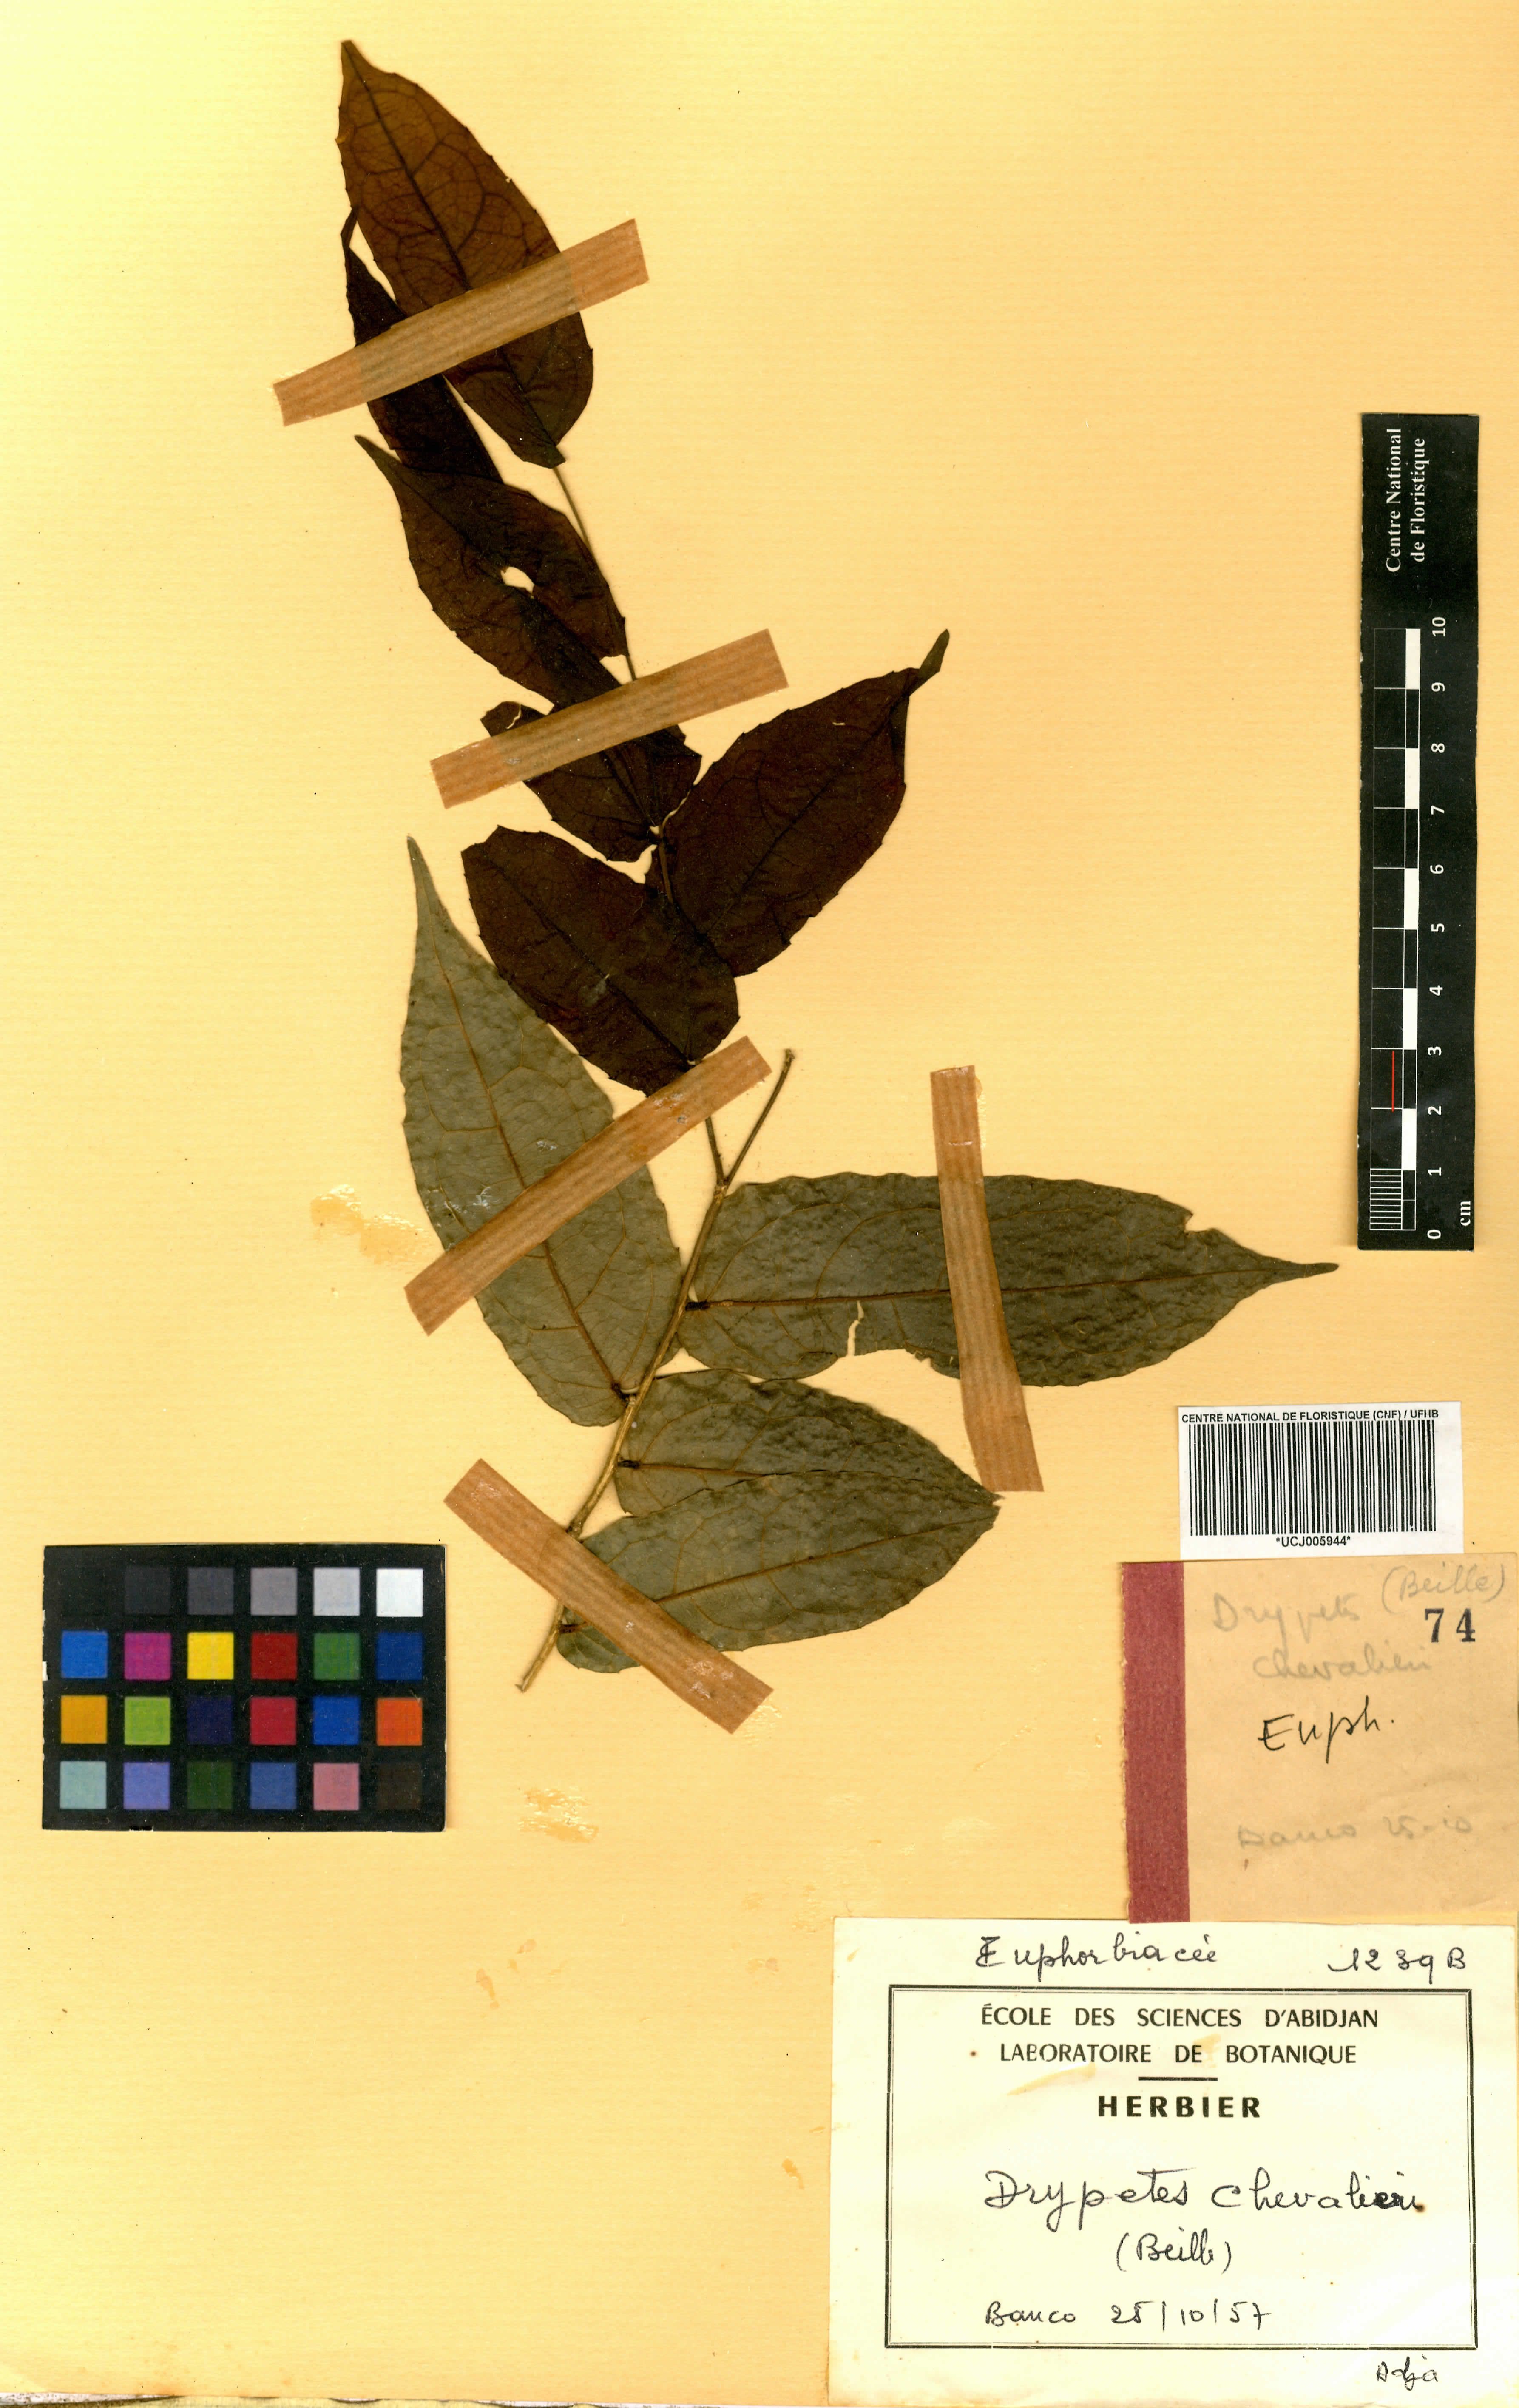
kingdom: Plantae
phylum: Tracheophyta
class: Magnoliopsida
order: Malpighiales
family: Putranjivaceae
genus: Drypetes
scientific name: Drypetes chevalieri
